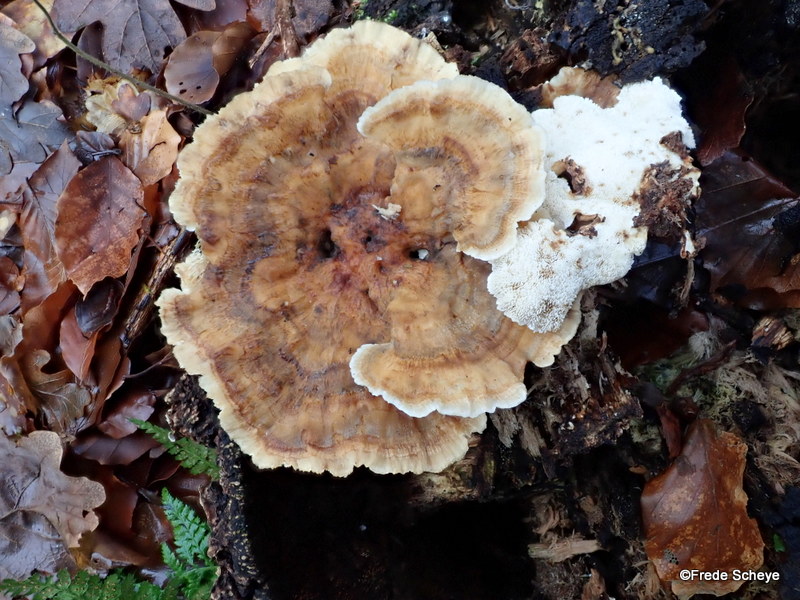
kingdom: Fungi
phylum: Basidiomycota
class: Agaricomycetes
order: Polyporales
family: Polyporaceae
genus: Trametes
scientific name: Trametes ochracea
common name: bæltet læderporesvamp
